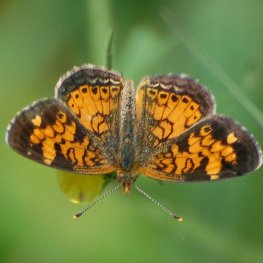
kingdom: Animalia
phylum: Arthropoda
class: Insecta
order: Lepidoptera
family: Nymphalidae
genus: Phyciodes
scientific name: Phyciodes tharos
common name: Northern Crescent
